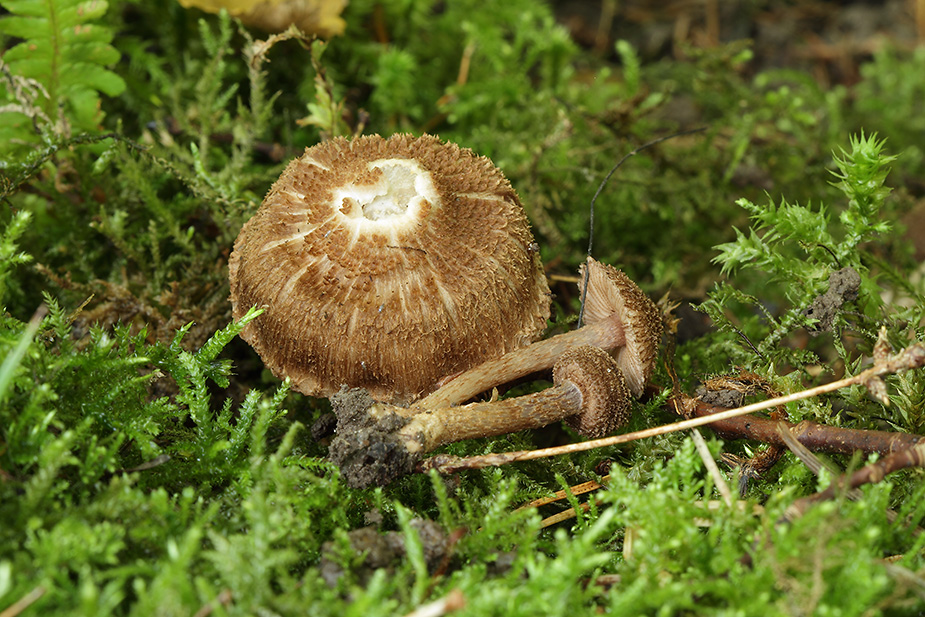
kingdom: Fungi
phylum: Basidiomycota
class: Agaricomycetes
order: Agaricales
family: Inocybaceae
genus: Inocybe
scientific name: Inocybe cincinnata
